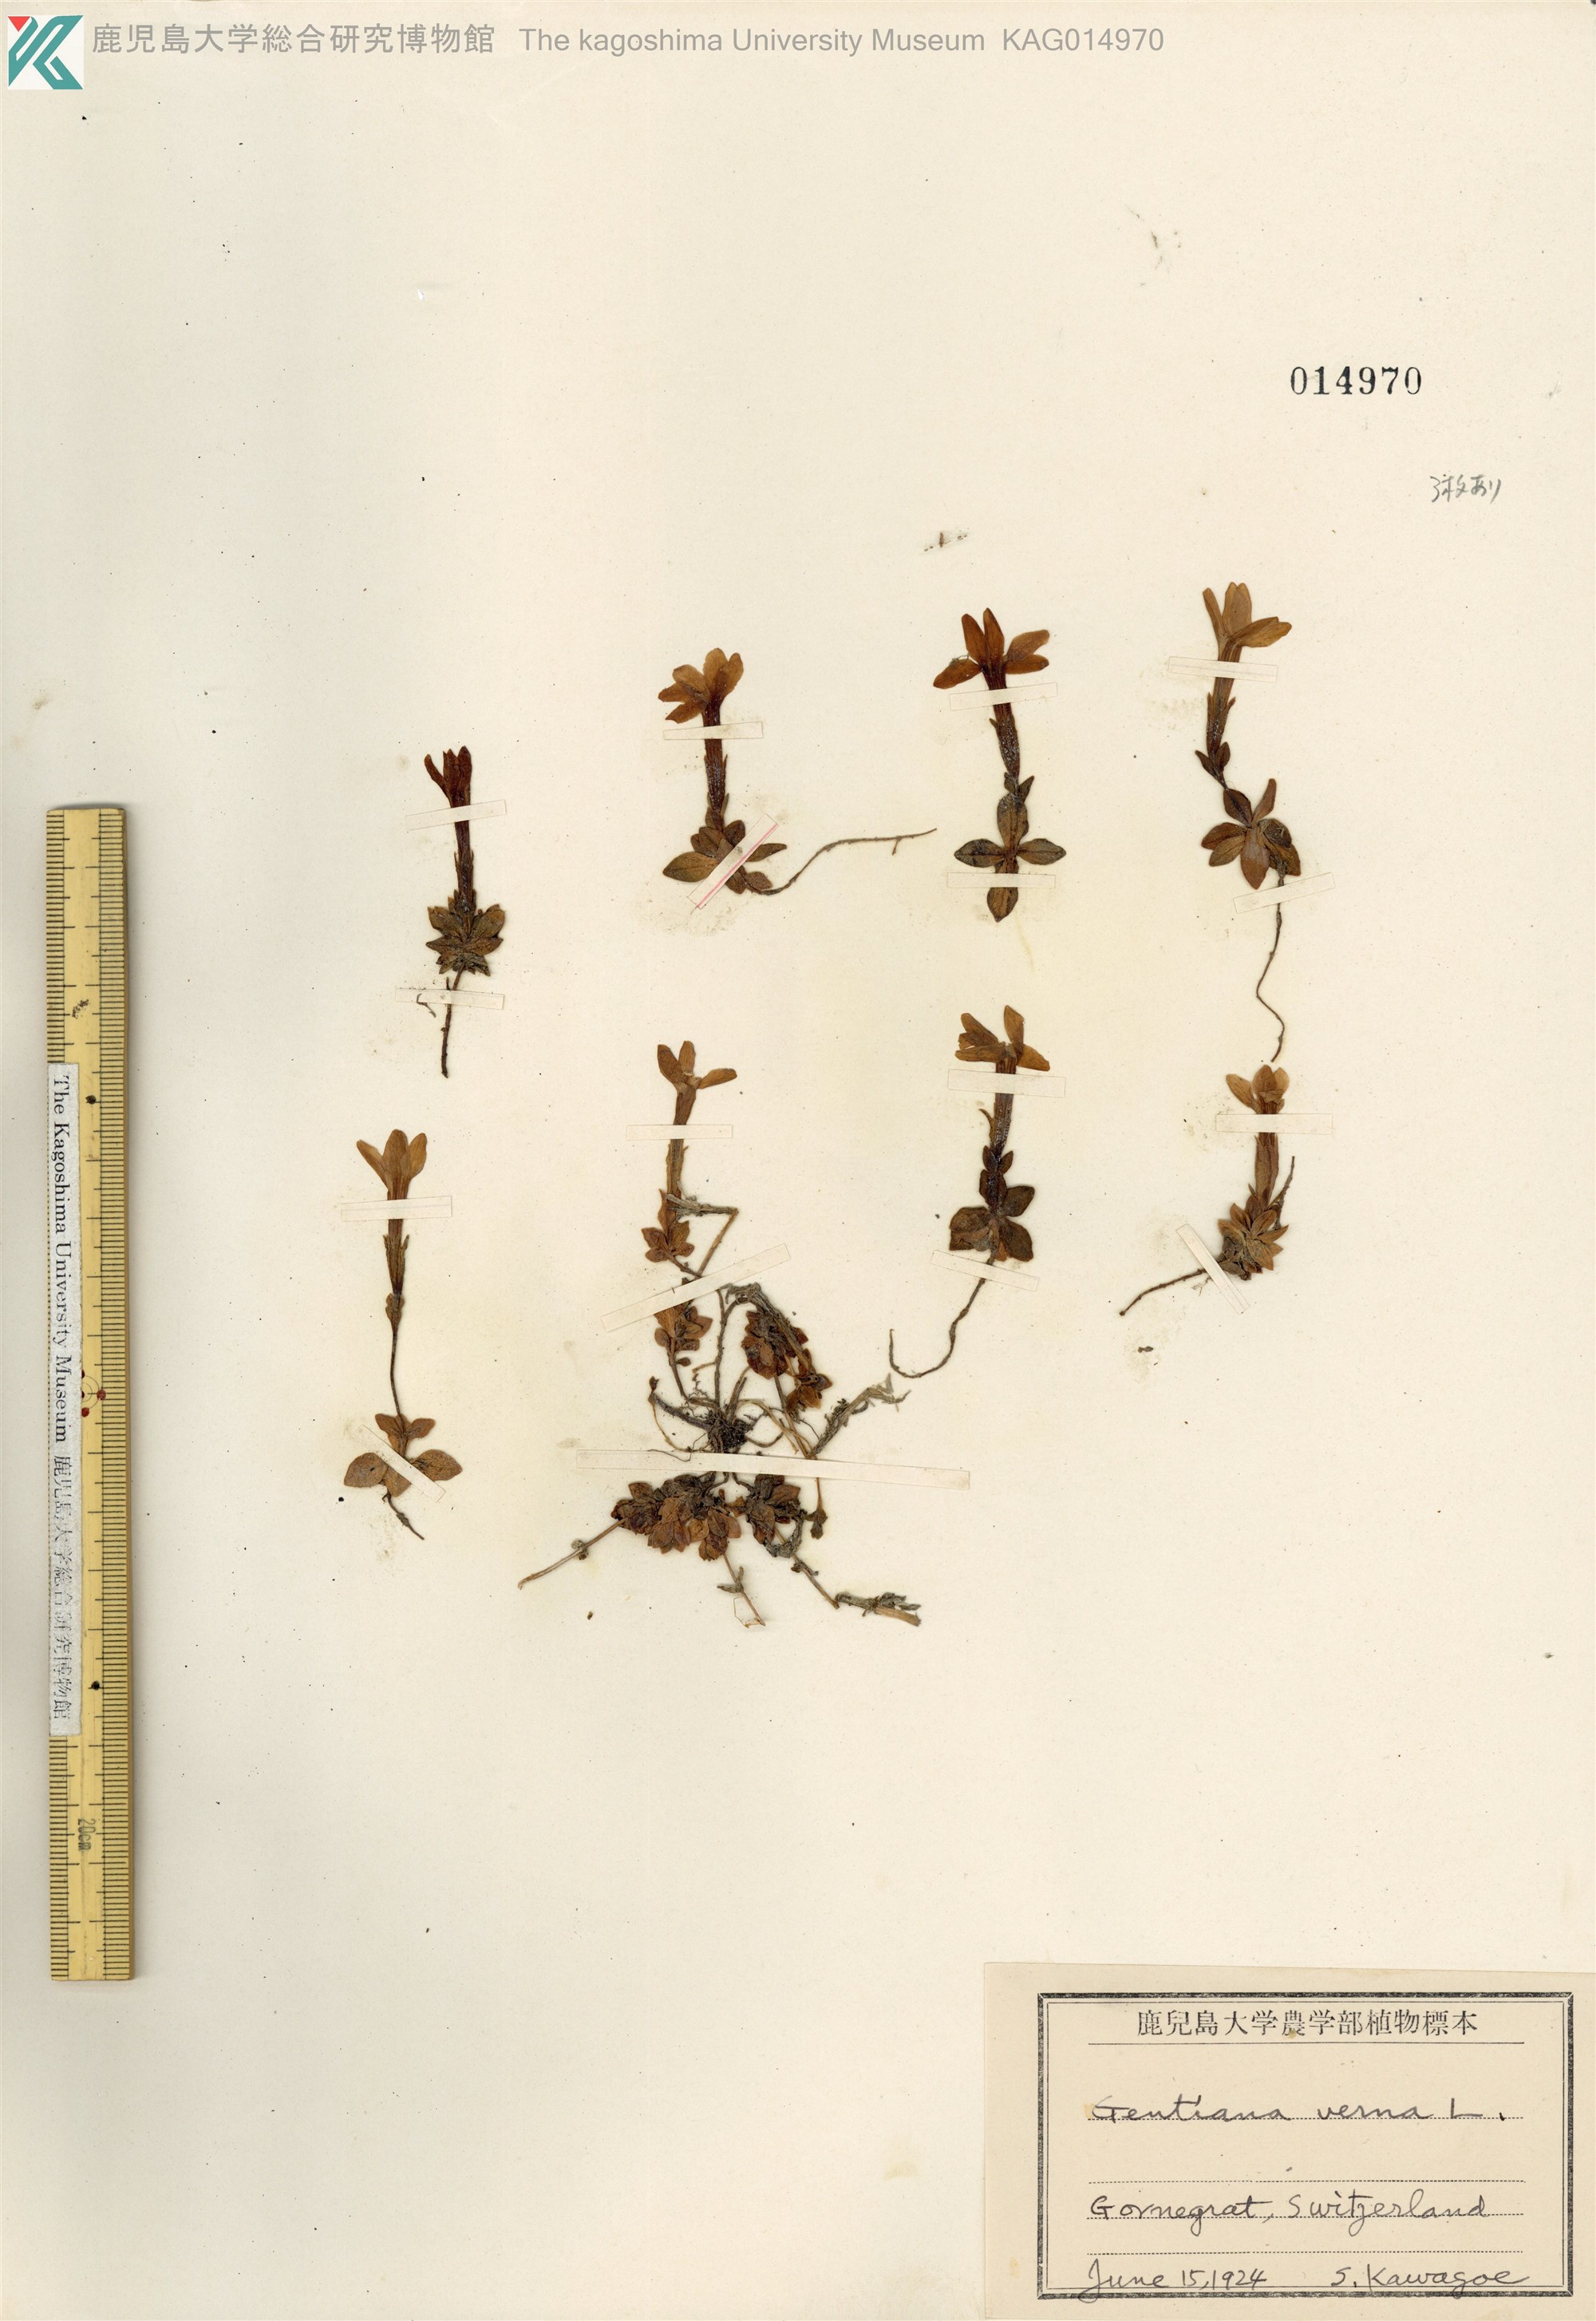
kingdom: Plantae
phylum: Tracheophyta
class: Magnoliopsida
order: Gentianales
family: Gentianaceae
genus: Gentiana
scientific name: Gentiana verna
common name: Spring gentian
